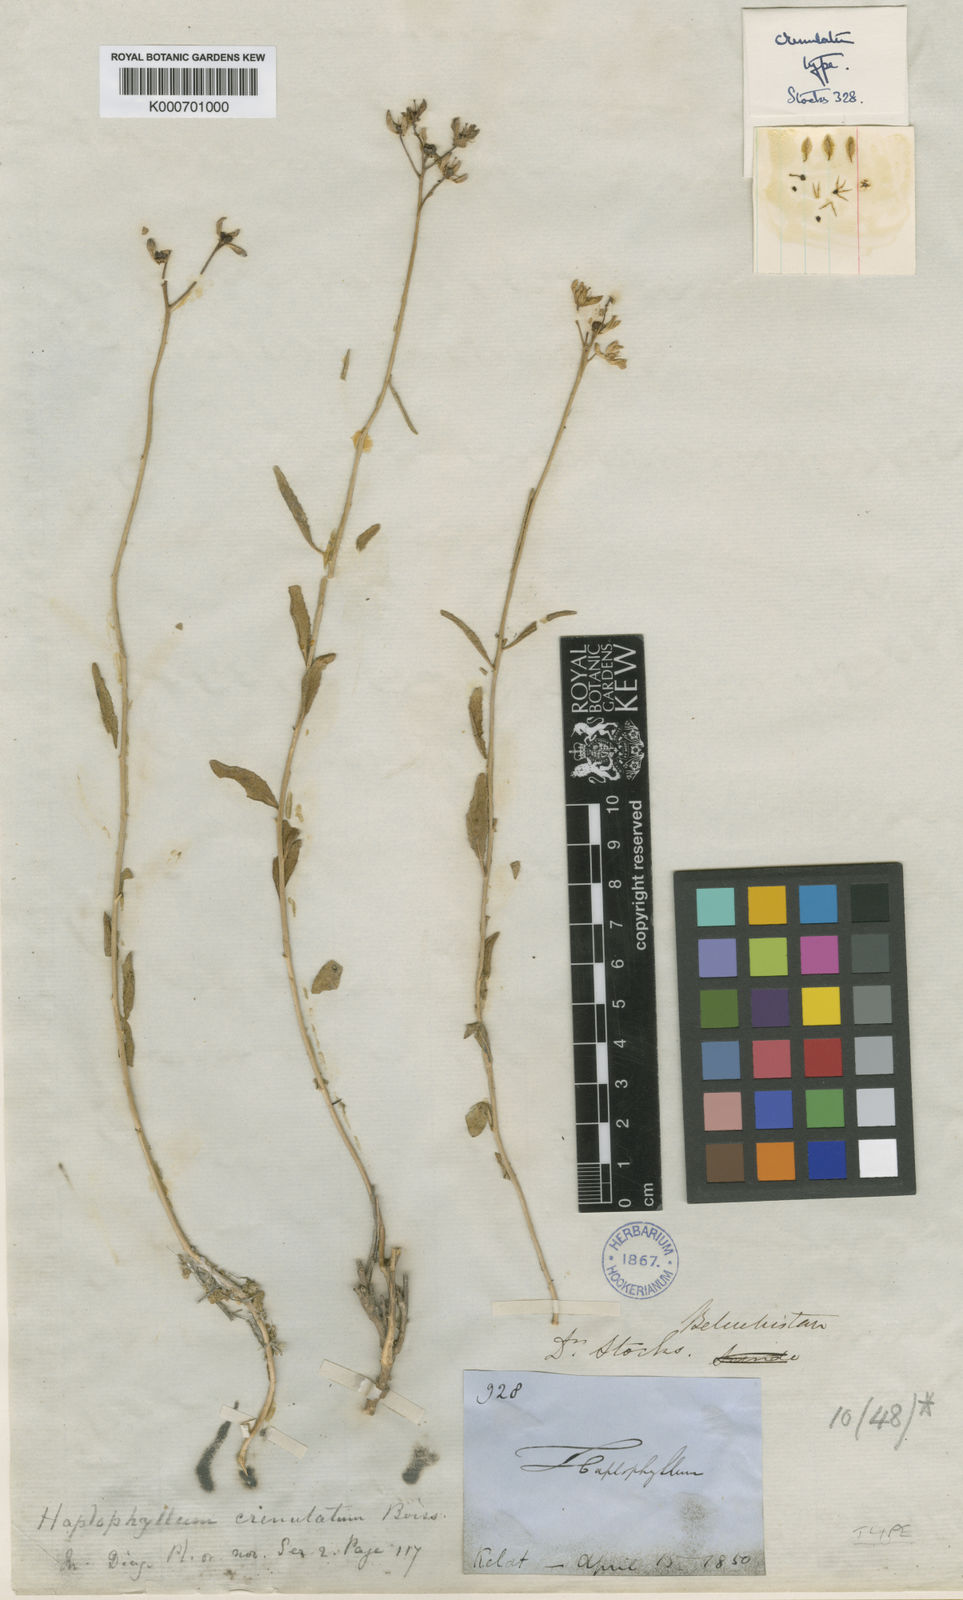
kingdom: Plantae
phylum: Tracheophyta
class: Magnoliopsida
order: Sapindales
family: Rutaceae
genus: Haplophyllum
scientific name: Haplophyllum crenulatum
